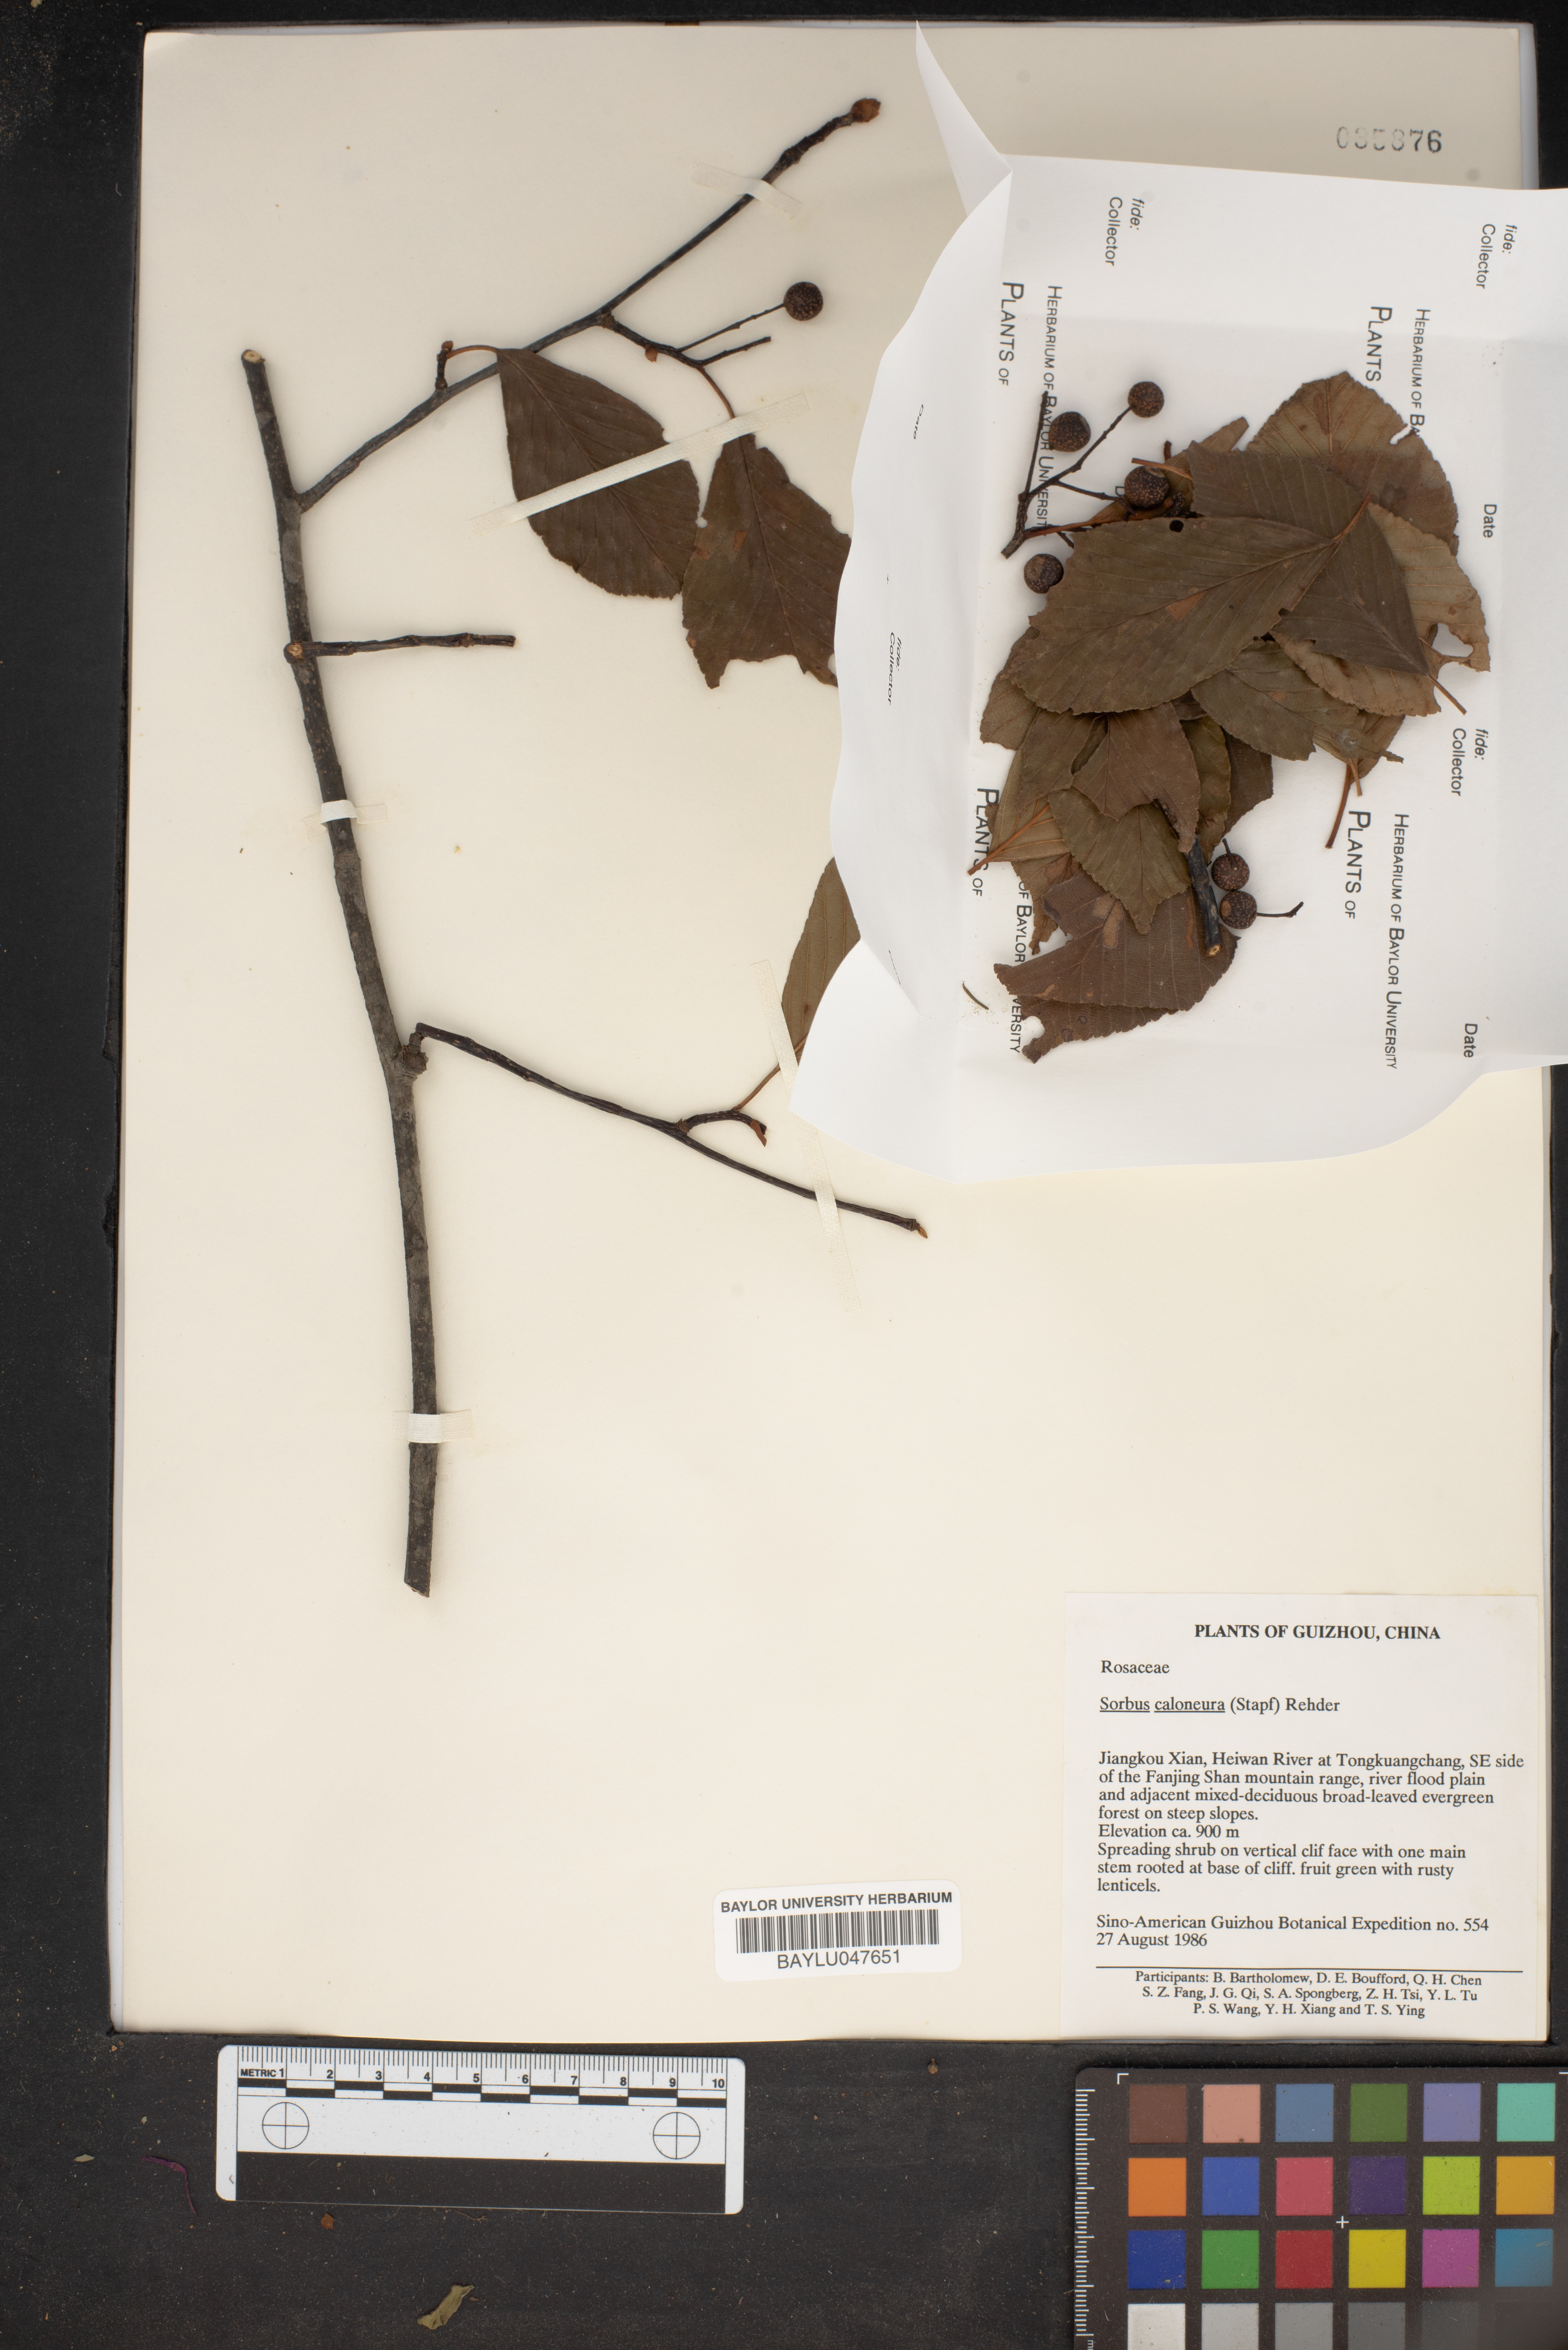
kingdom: Plantae
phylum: Tracheophyta
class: Magnoliopsida
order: Rosales
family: Rosaceae
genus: Sorbus
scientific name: Sorbus caloneura
